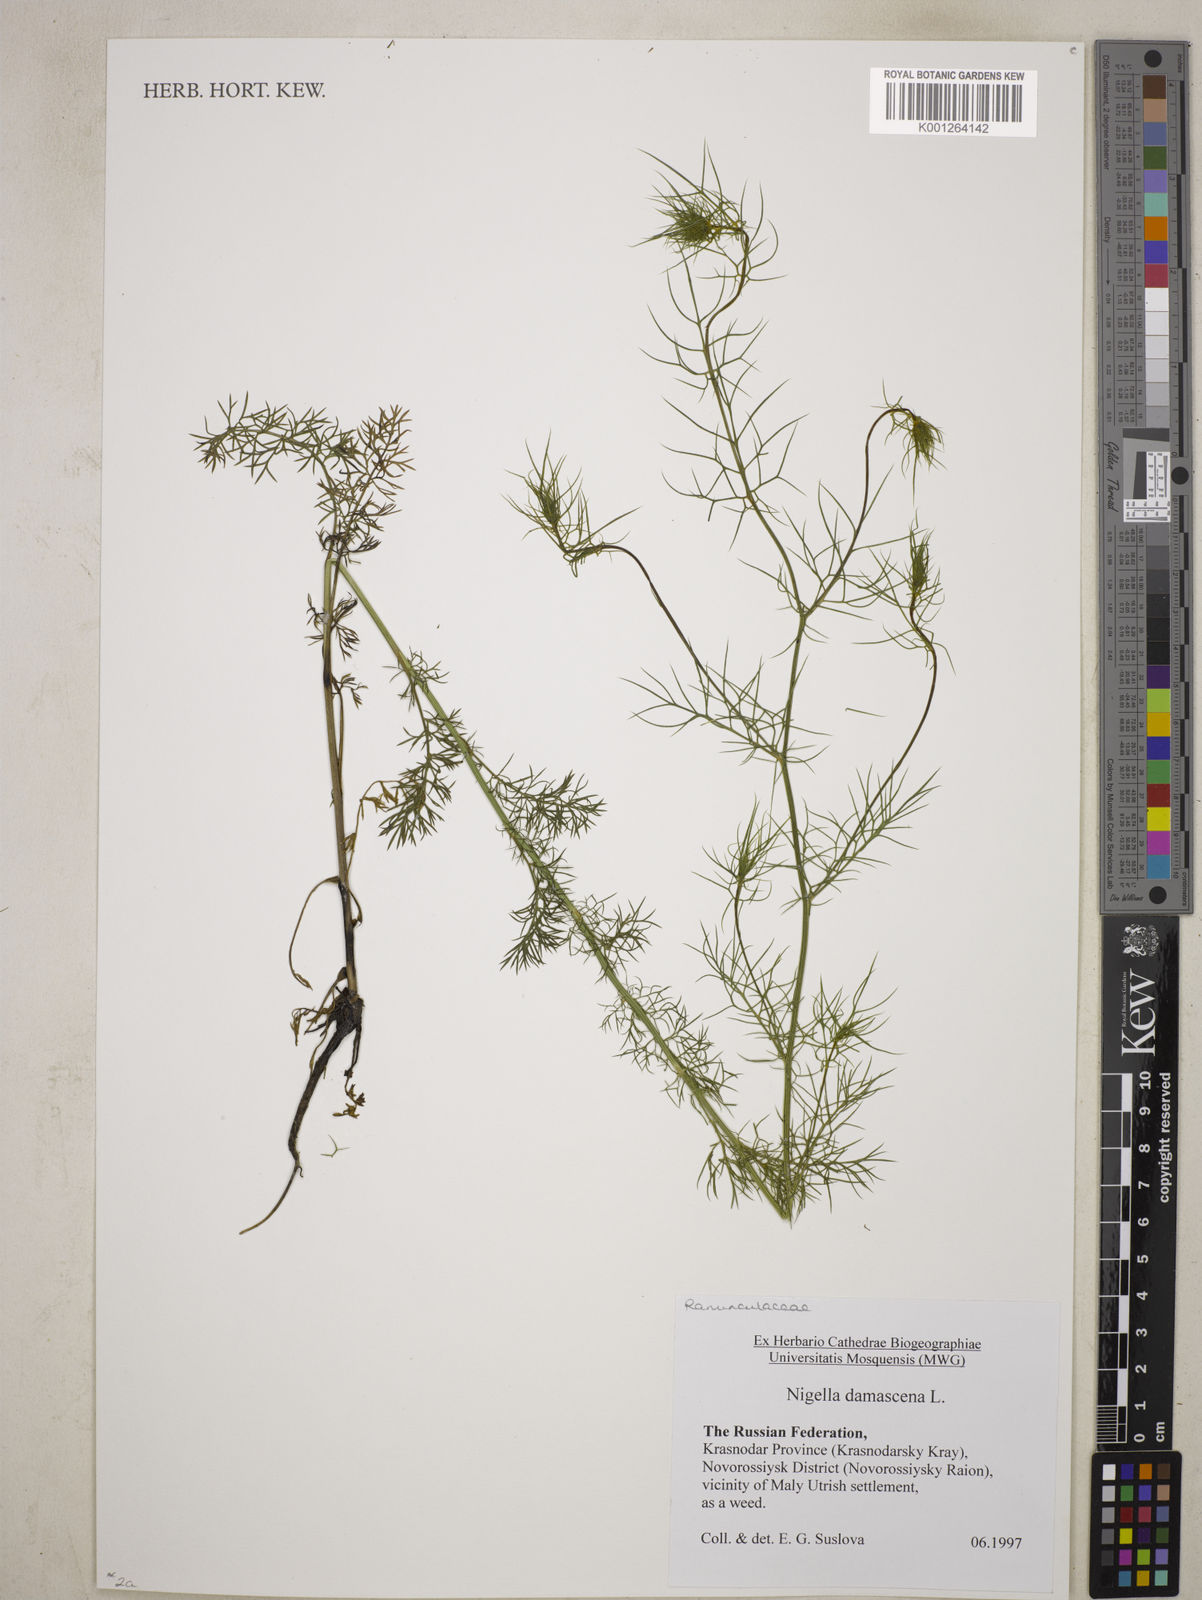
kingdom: Plantae
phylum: Tracheophyta
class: Magnoliopsida
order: Ranunculales
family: Ranunculaceae
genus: Nigella
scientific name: Nigella damascena
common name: Love-in-a-mist
